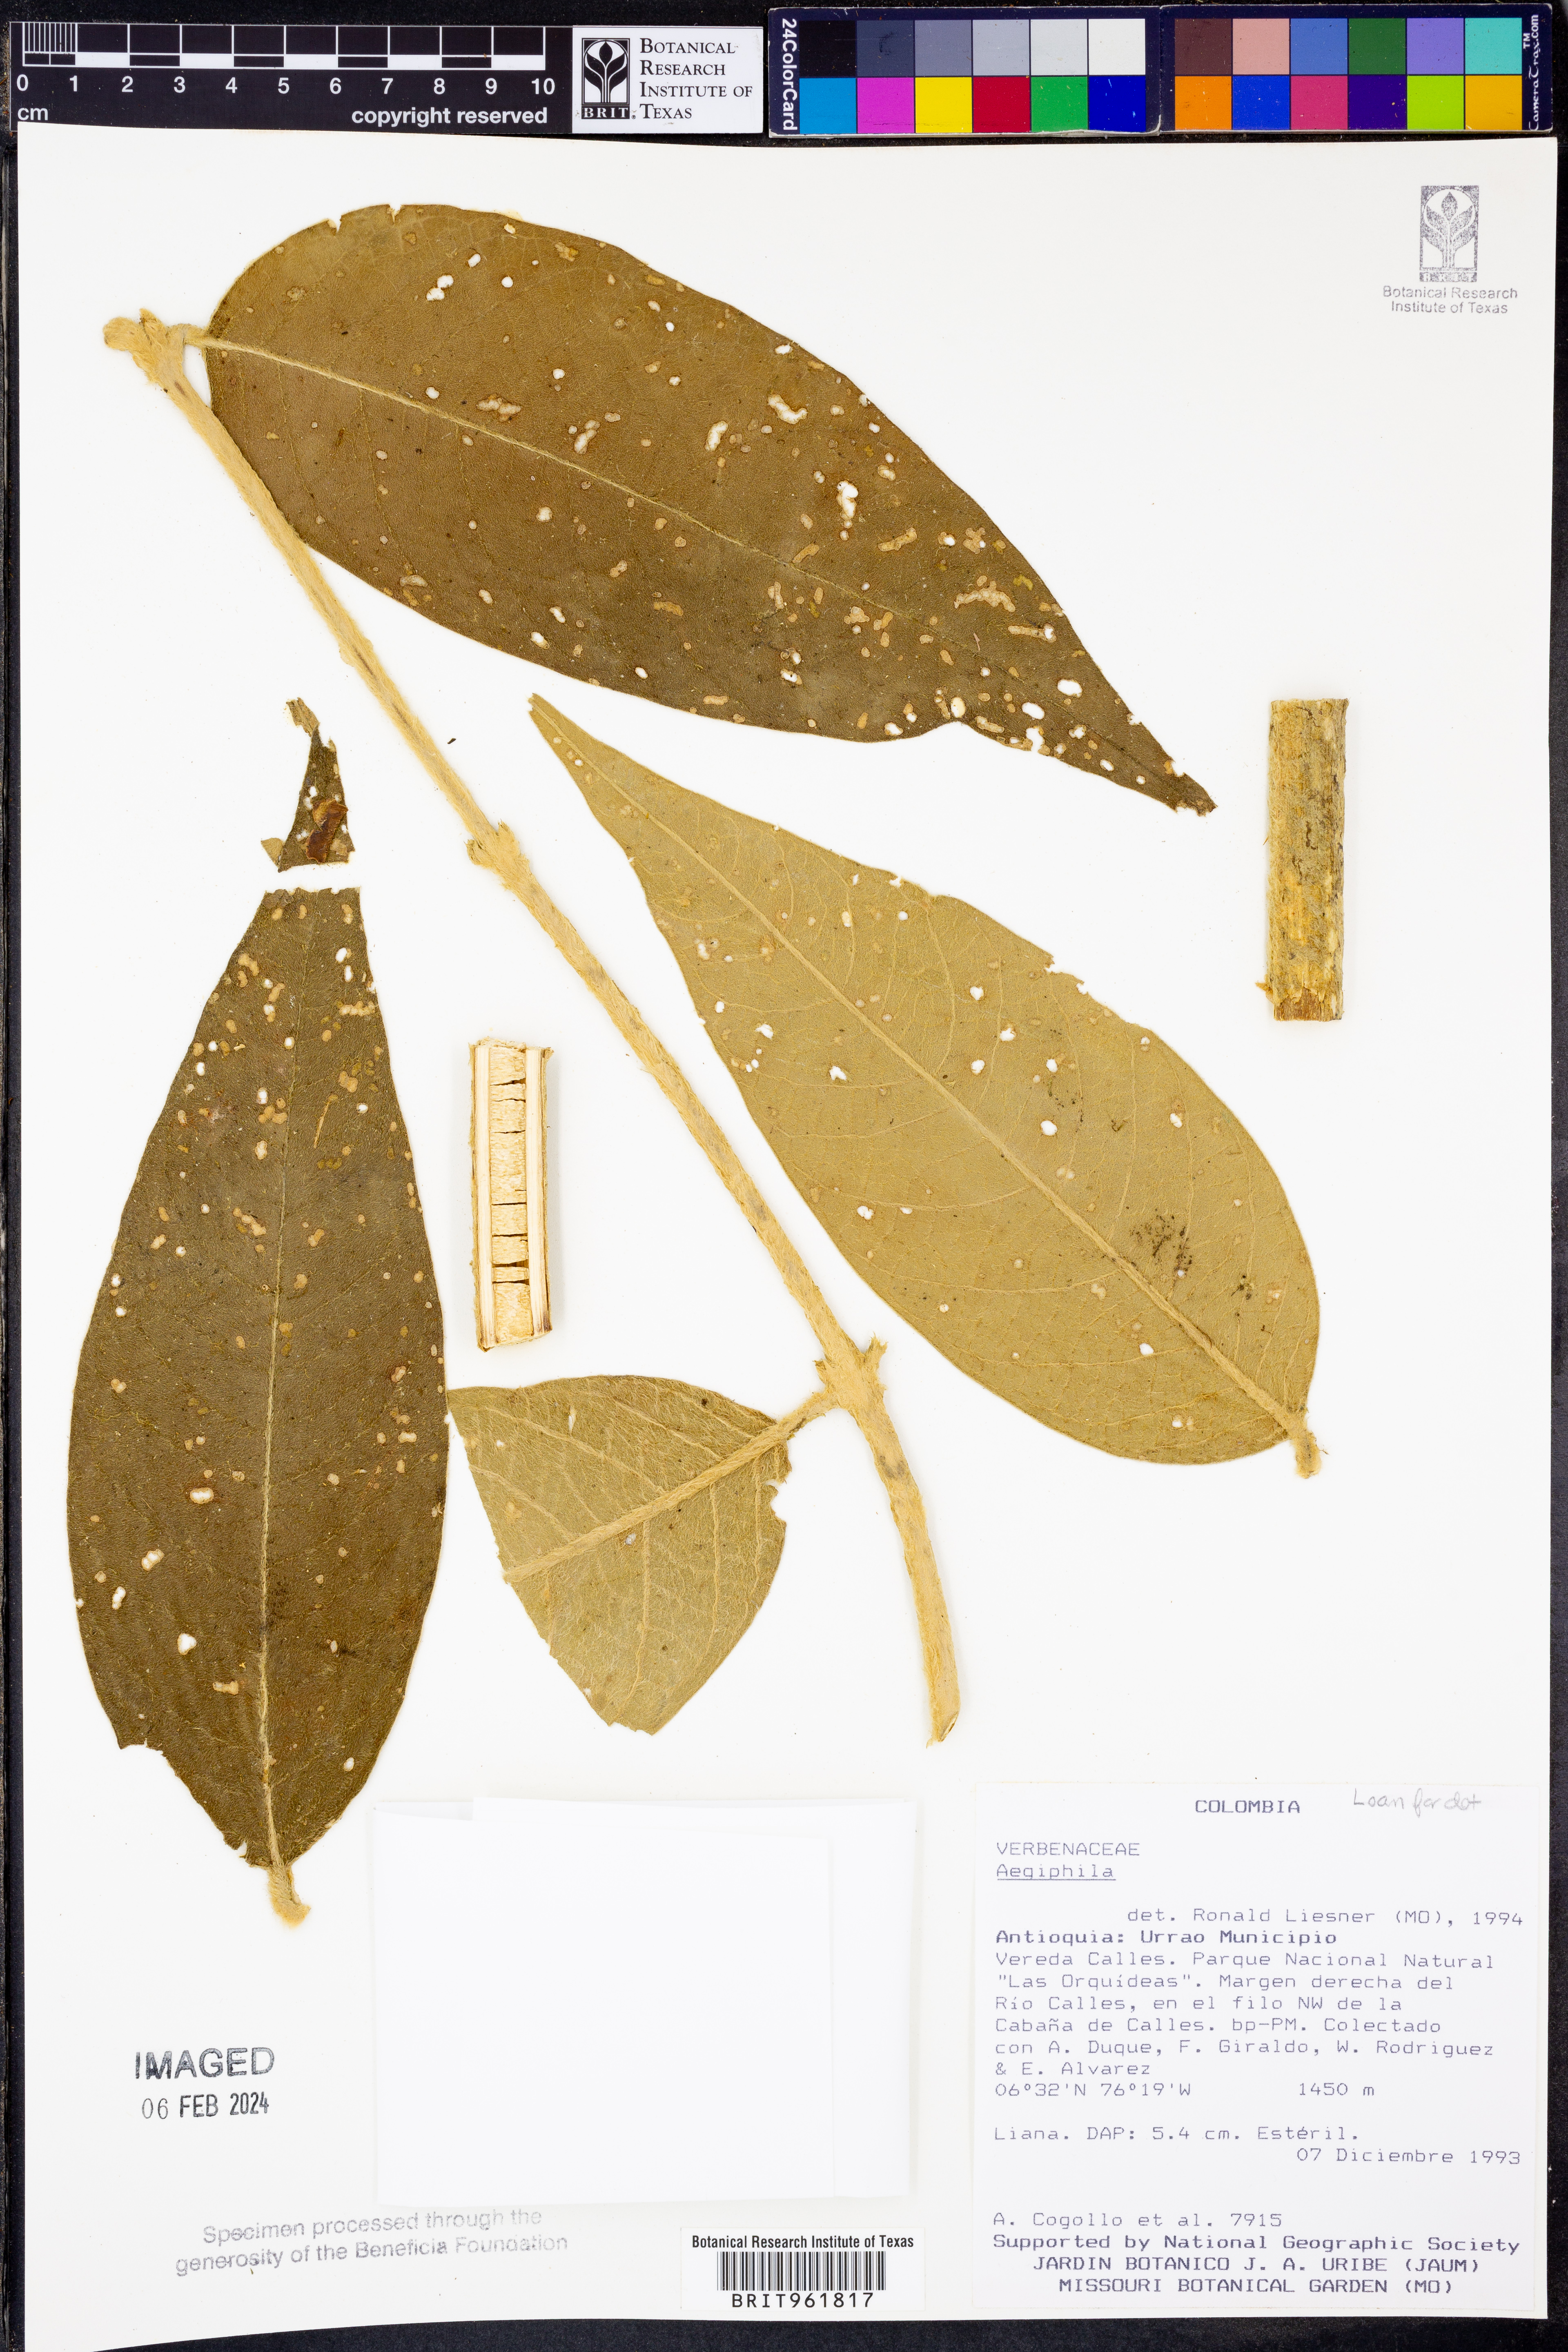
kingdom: Plantae
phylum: Tracheophyta
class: Magnoliopsida
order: Lamiales
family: Lamiaceae
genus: Aegiphila
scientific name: Aegiphila
